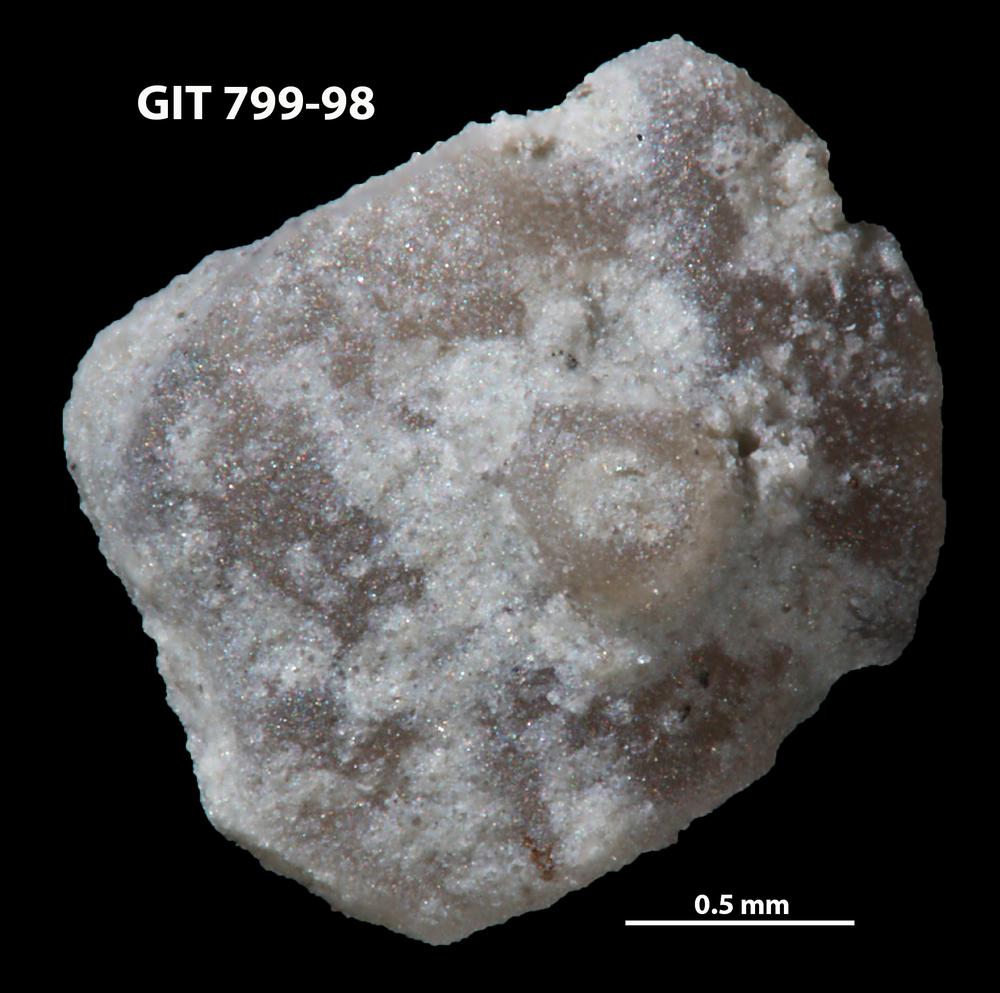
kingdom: Animalia
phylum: Echinodermata
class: Echinoidea
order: Bothriocidaroida
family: Bothriocidaridae
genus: Neobothriocidaris
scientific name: Neobothriocidaris
